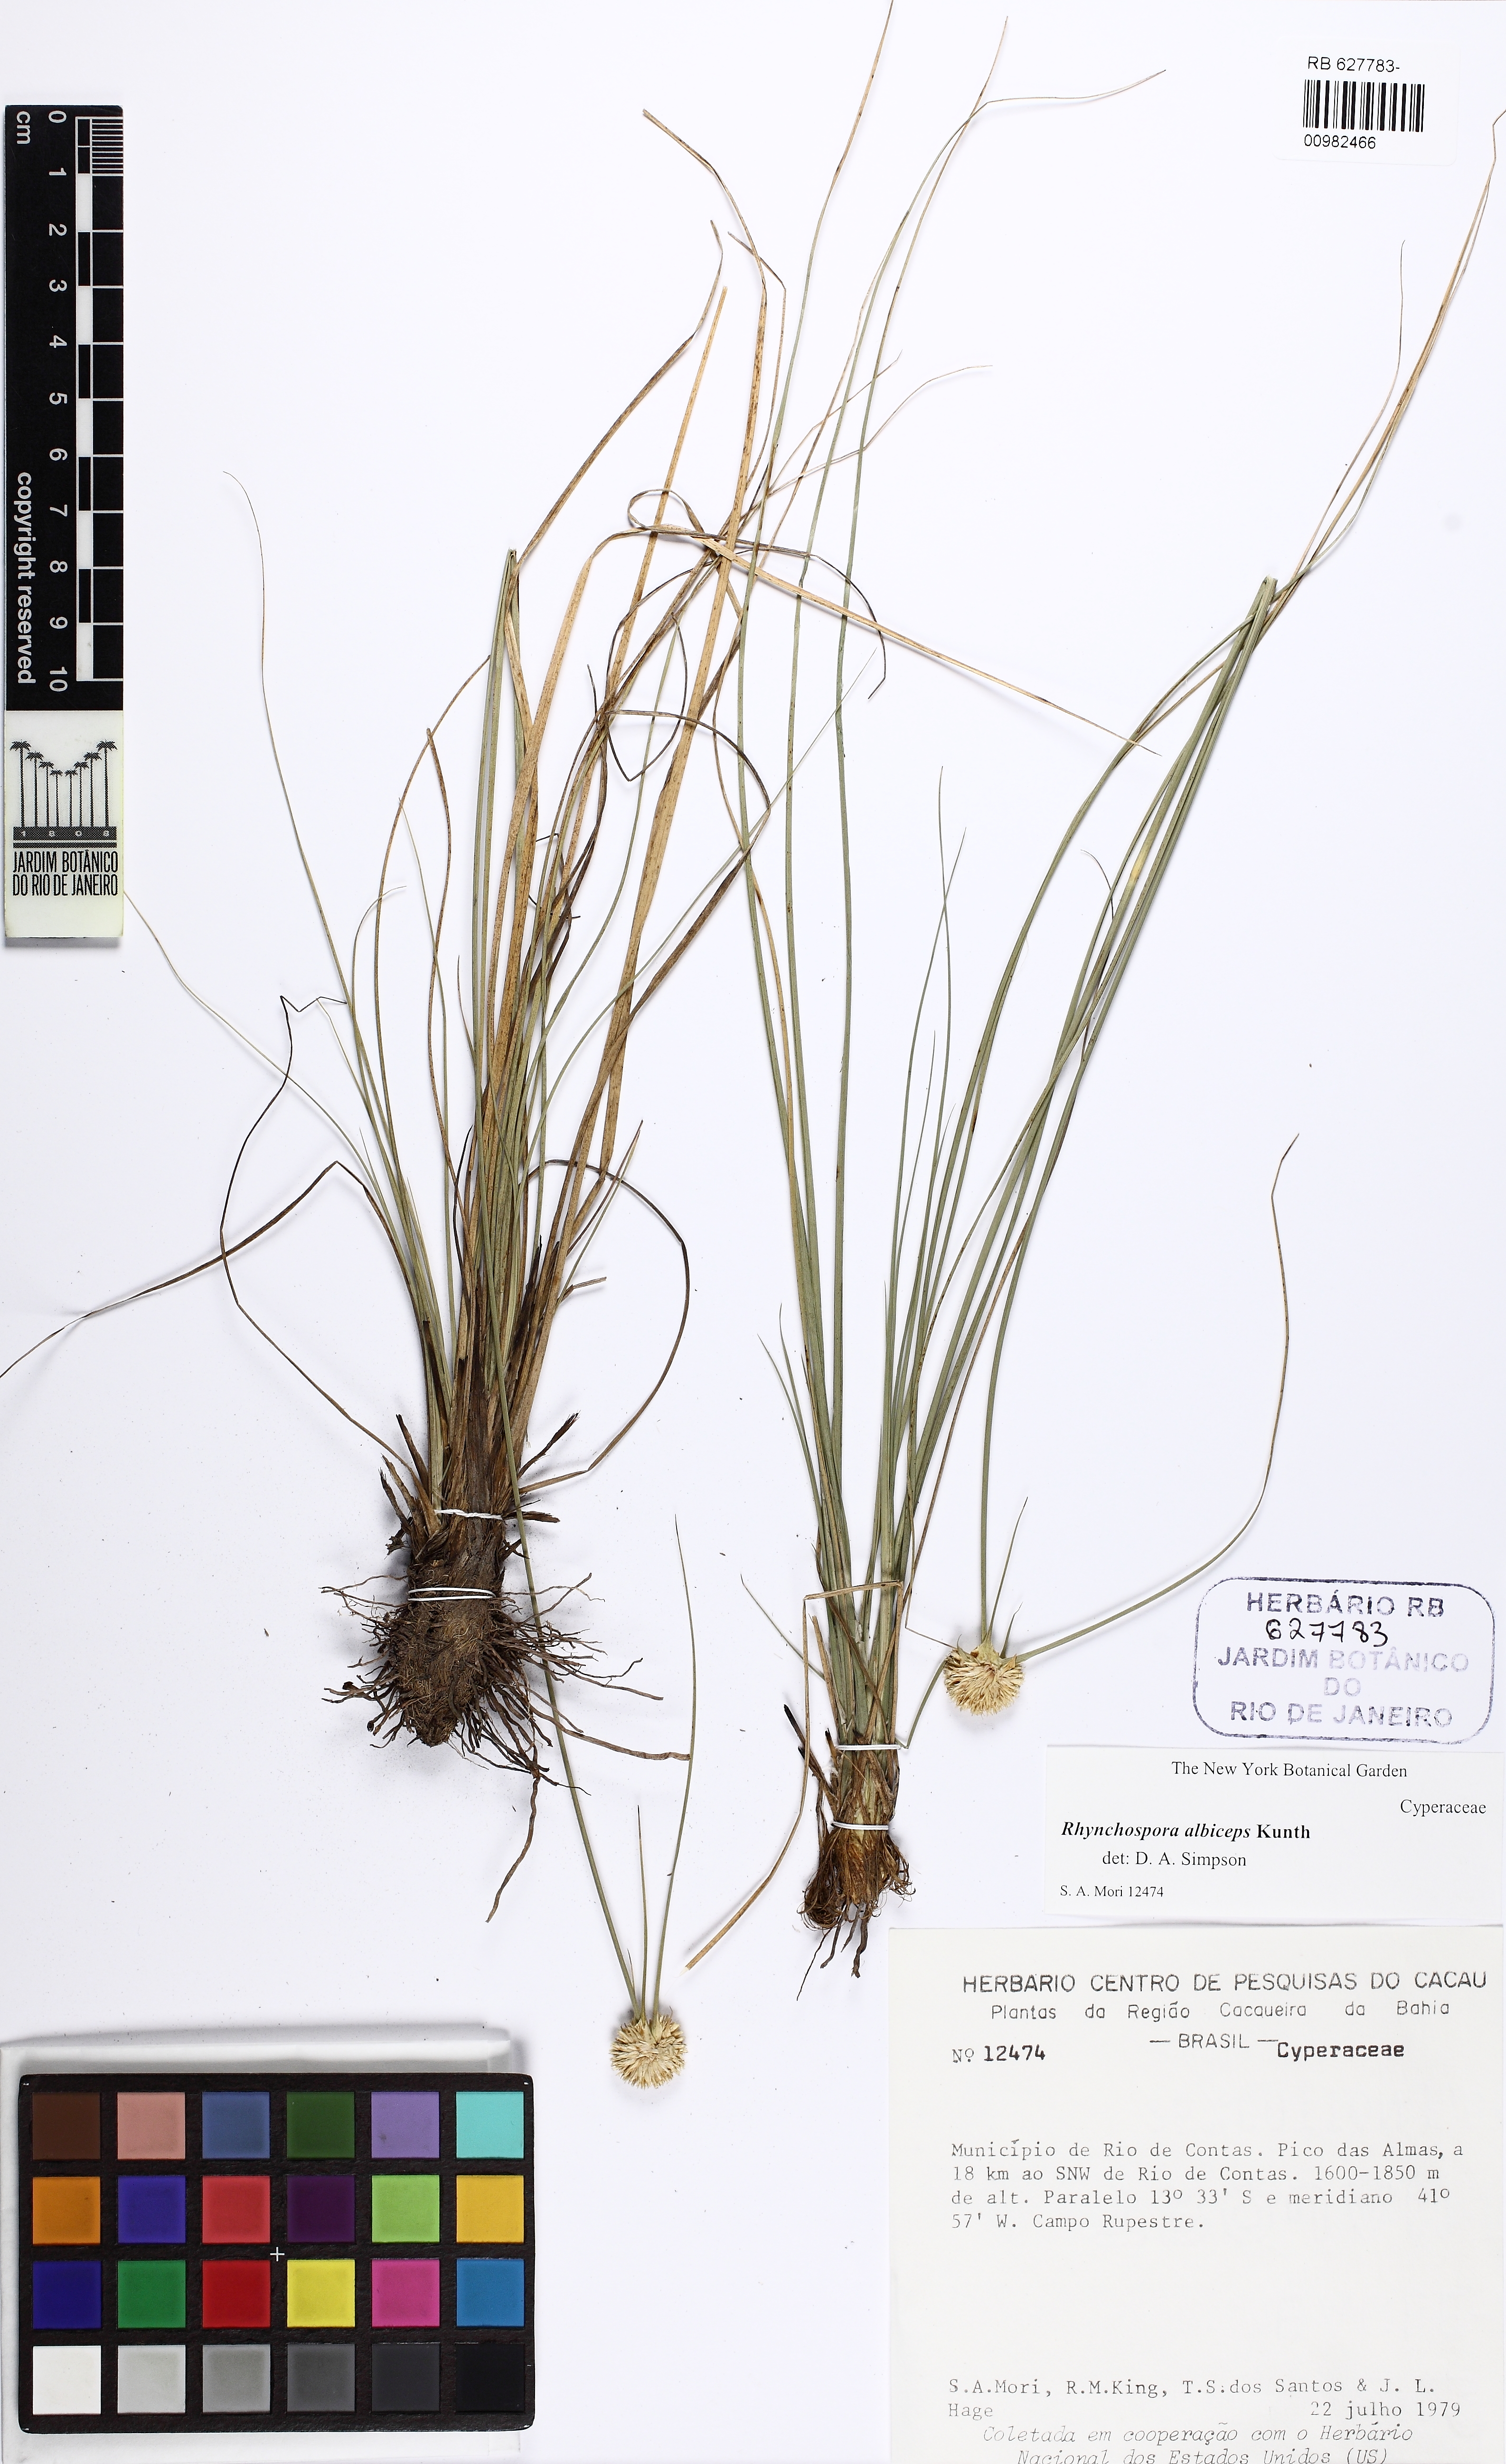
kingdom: Plantae
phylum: Tracheophyta
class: Liliopsida
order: Poales
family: Cyperaceae
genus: Rhynchospora
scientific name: Rhynchospora rupestris
